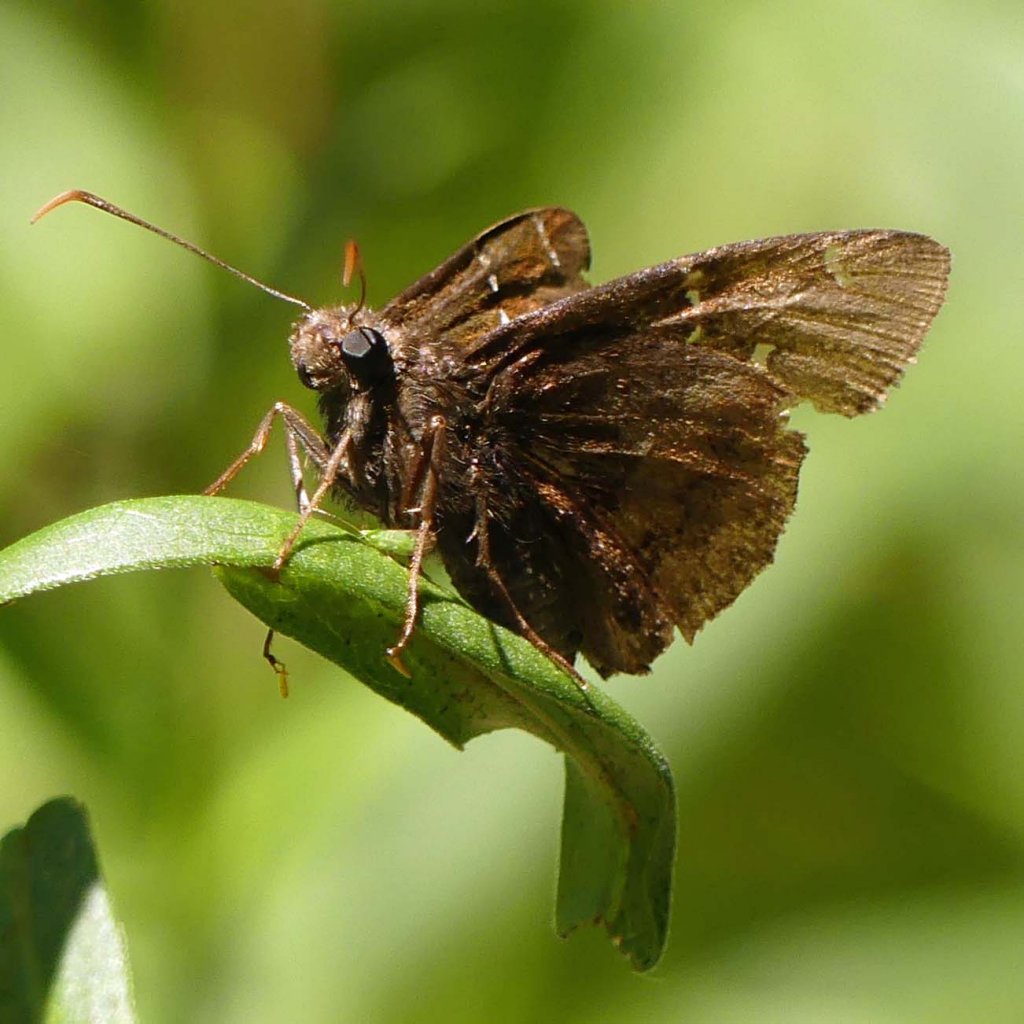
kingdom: Animalia
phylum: Arthropoda
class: Insecta
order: Lepidoptera
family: Hesperiidae
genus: Autochton
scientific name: Autochton
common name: Northern Cloudywing
